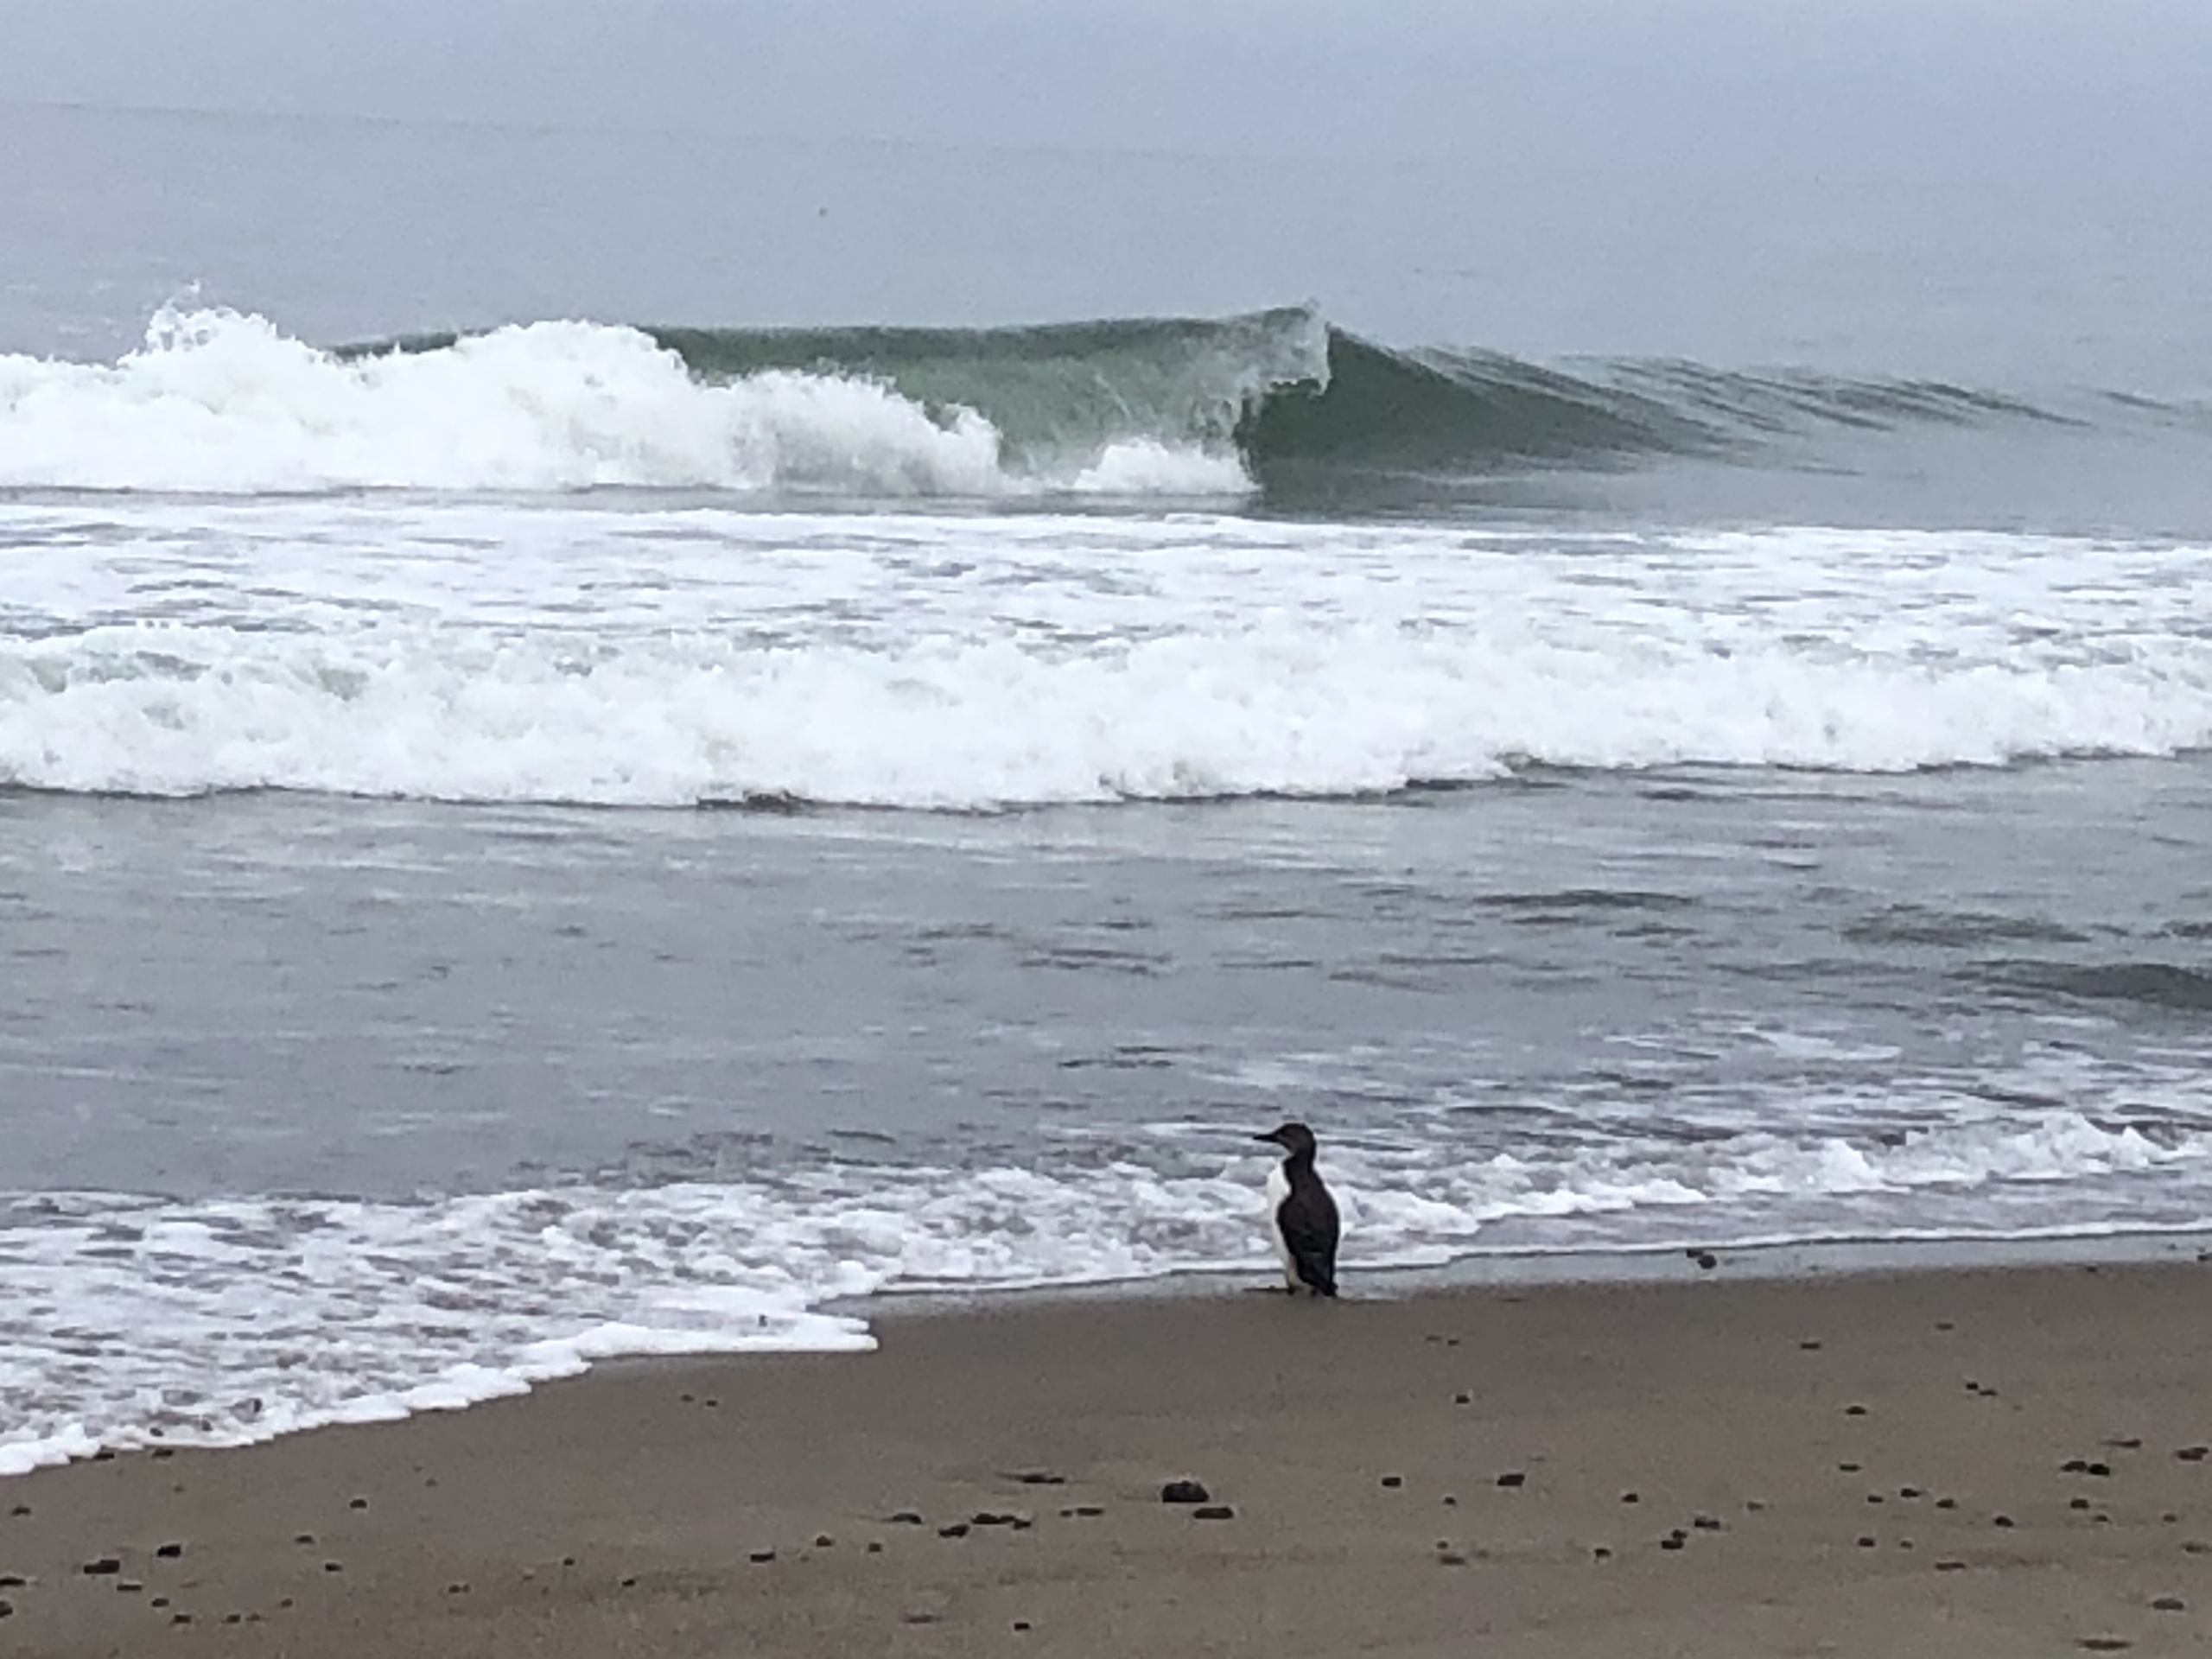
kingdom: Animalia
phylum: Chordata
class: Aves
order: Charadriiformes
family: Alcidae
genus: Uria
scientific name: Uria aalge
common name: Lomvie
